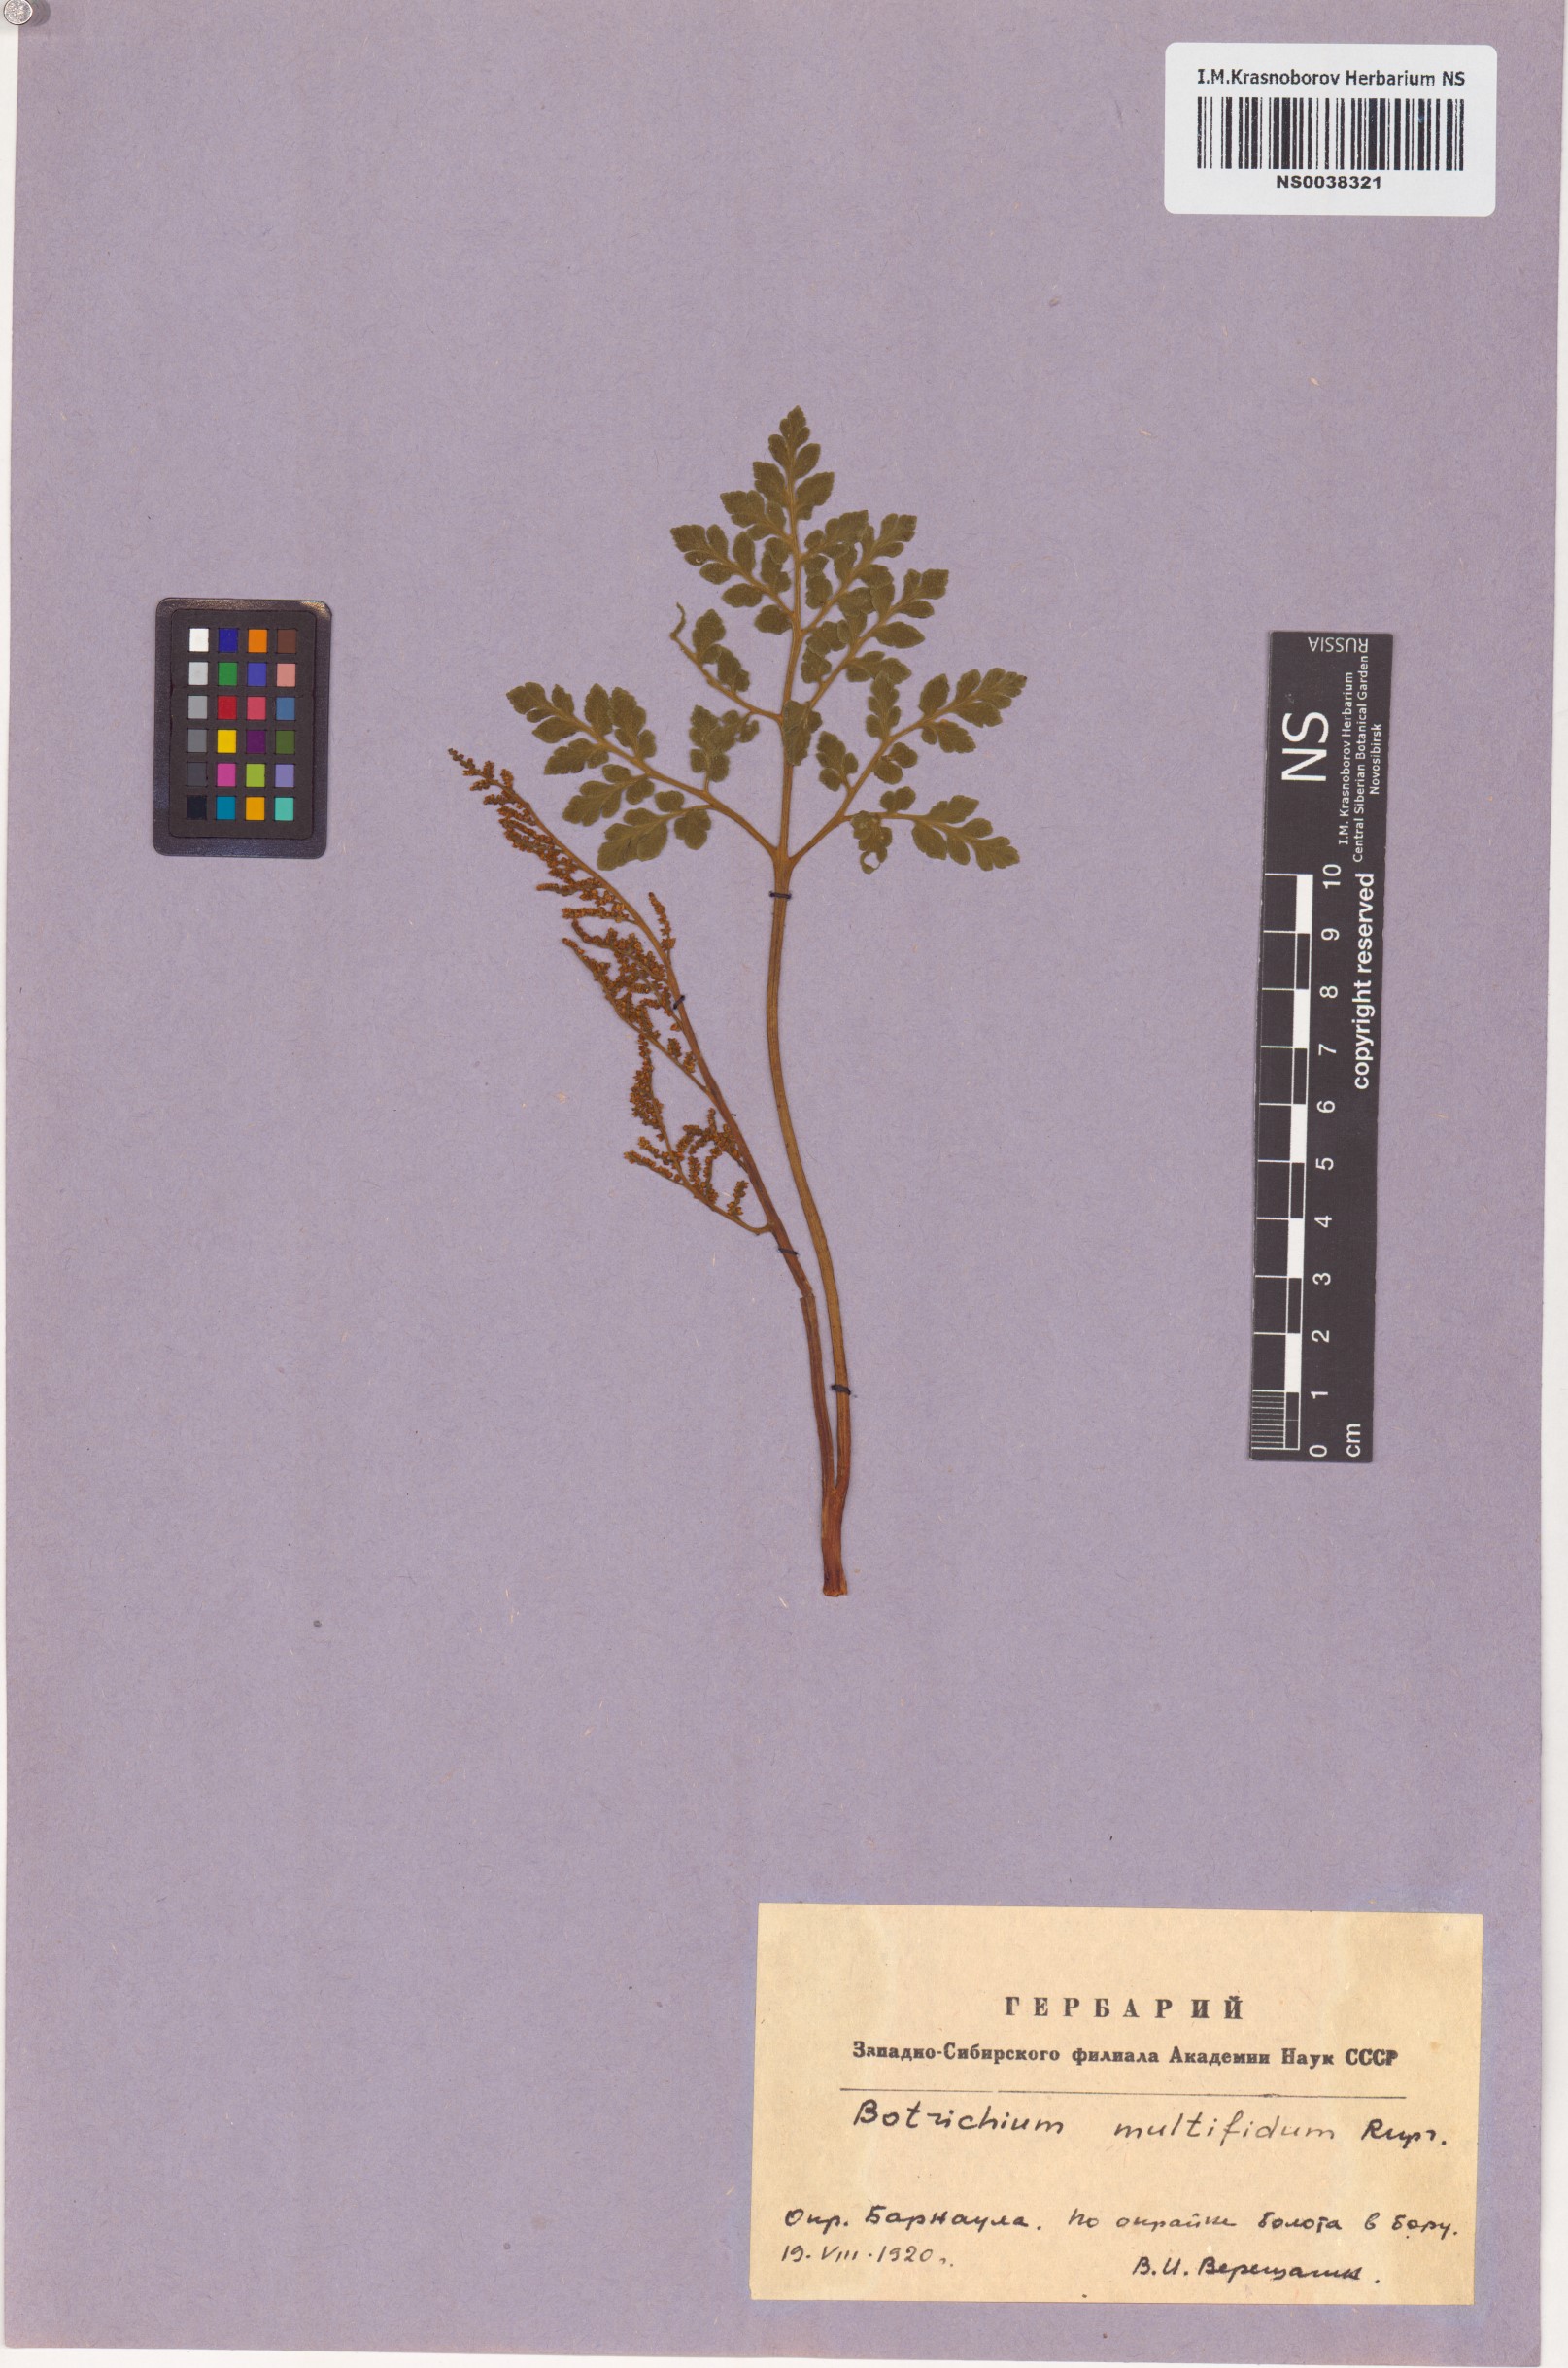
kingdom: Plantae
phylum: Tracheophyta
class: Polypodiopsida
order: Ophioglossales
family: Ophioglossaceae
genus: Sceptridium
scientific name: Sceptridium multifidum
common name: Leathery grape fern
